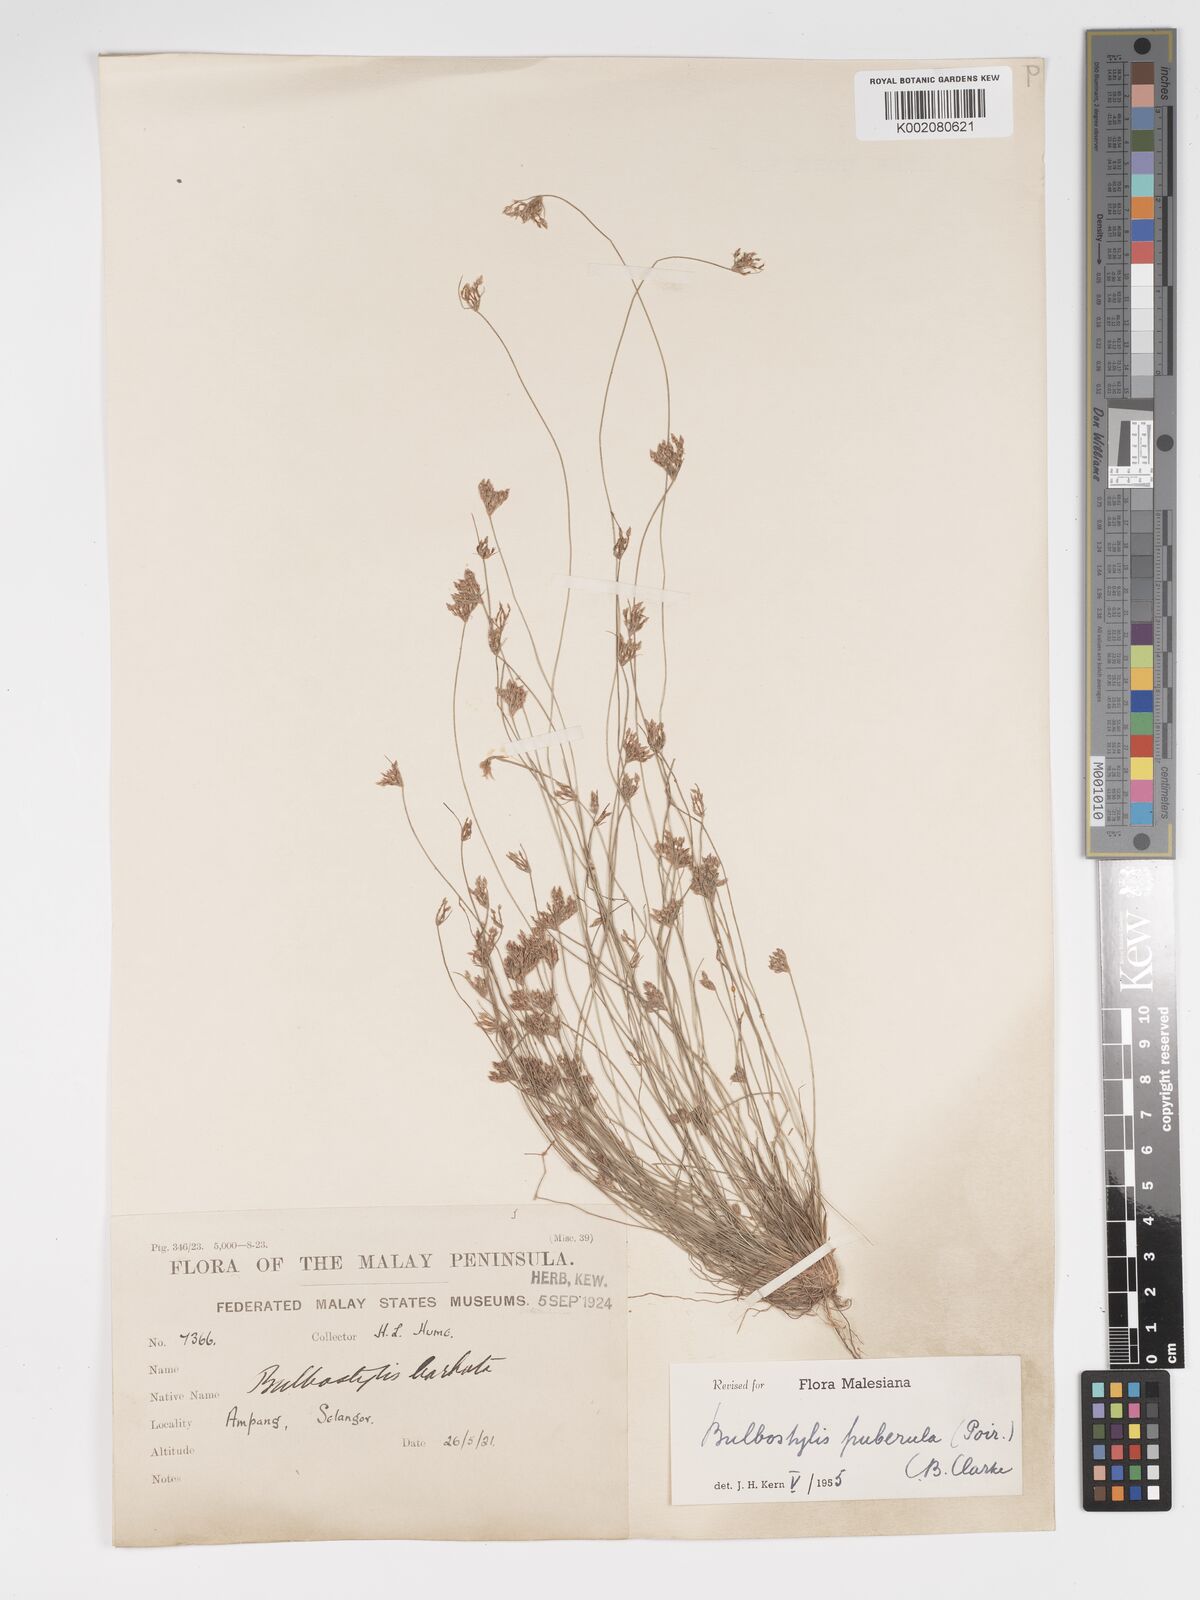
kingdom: Plantae
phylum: Tracheophyta
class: Liliopsida
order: Poales
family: Cyperaceae
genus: Bulbostylis
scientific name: Bulbostylis thouarsii
